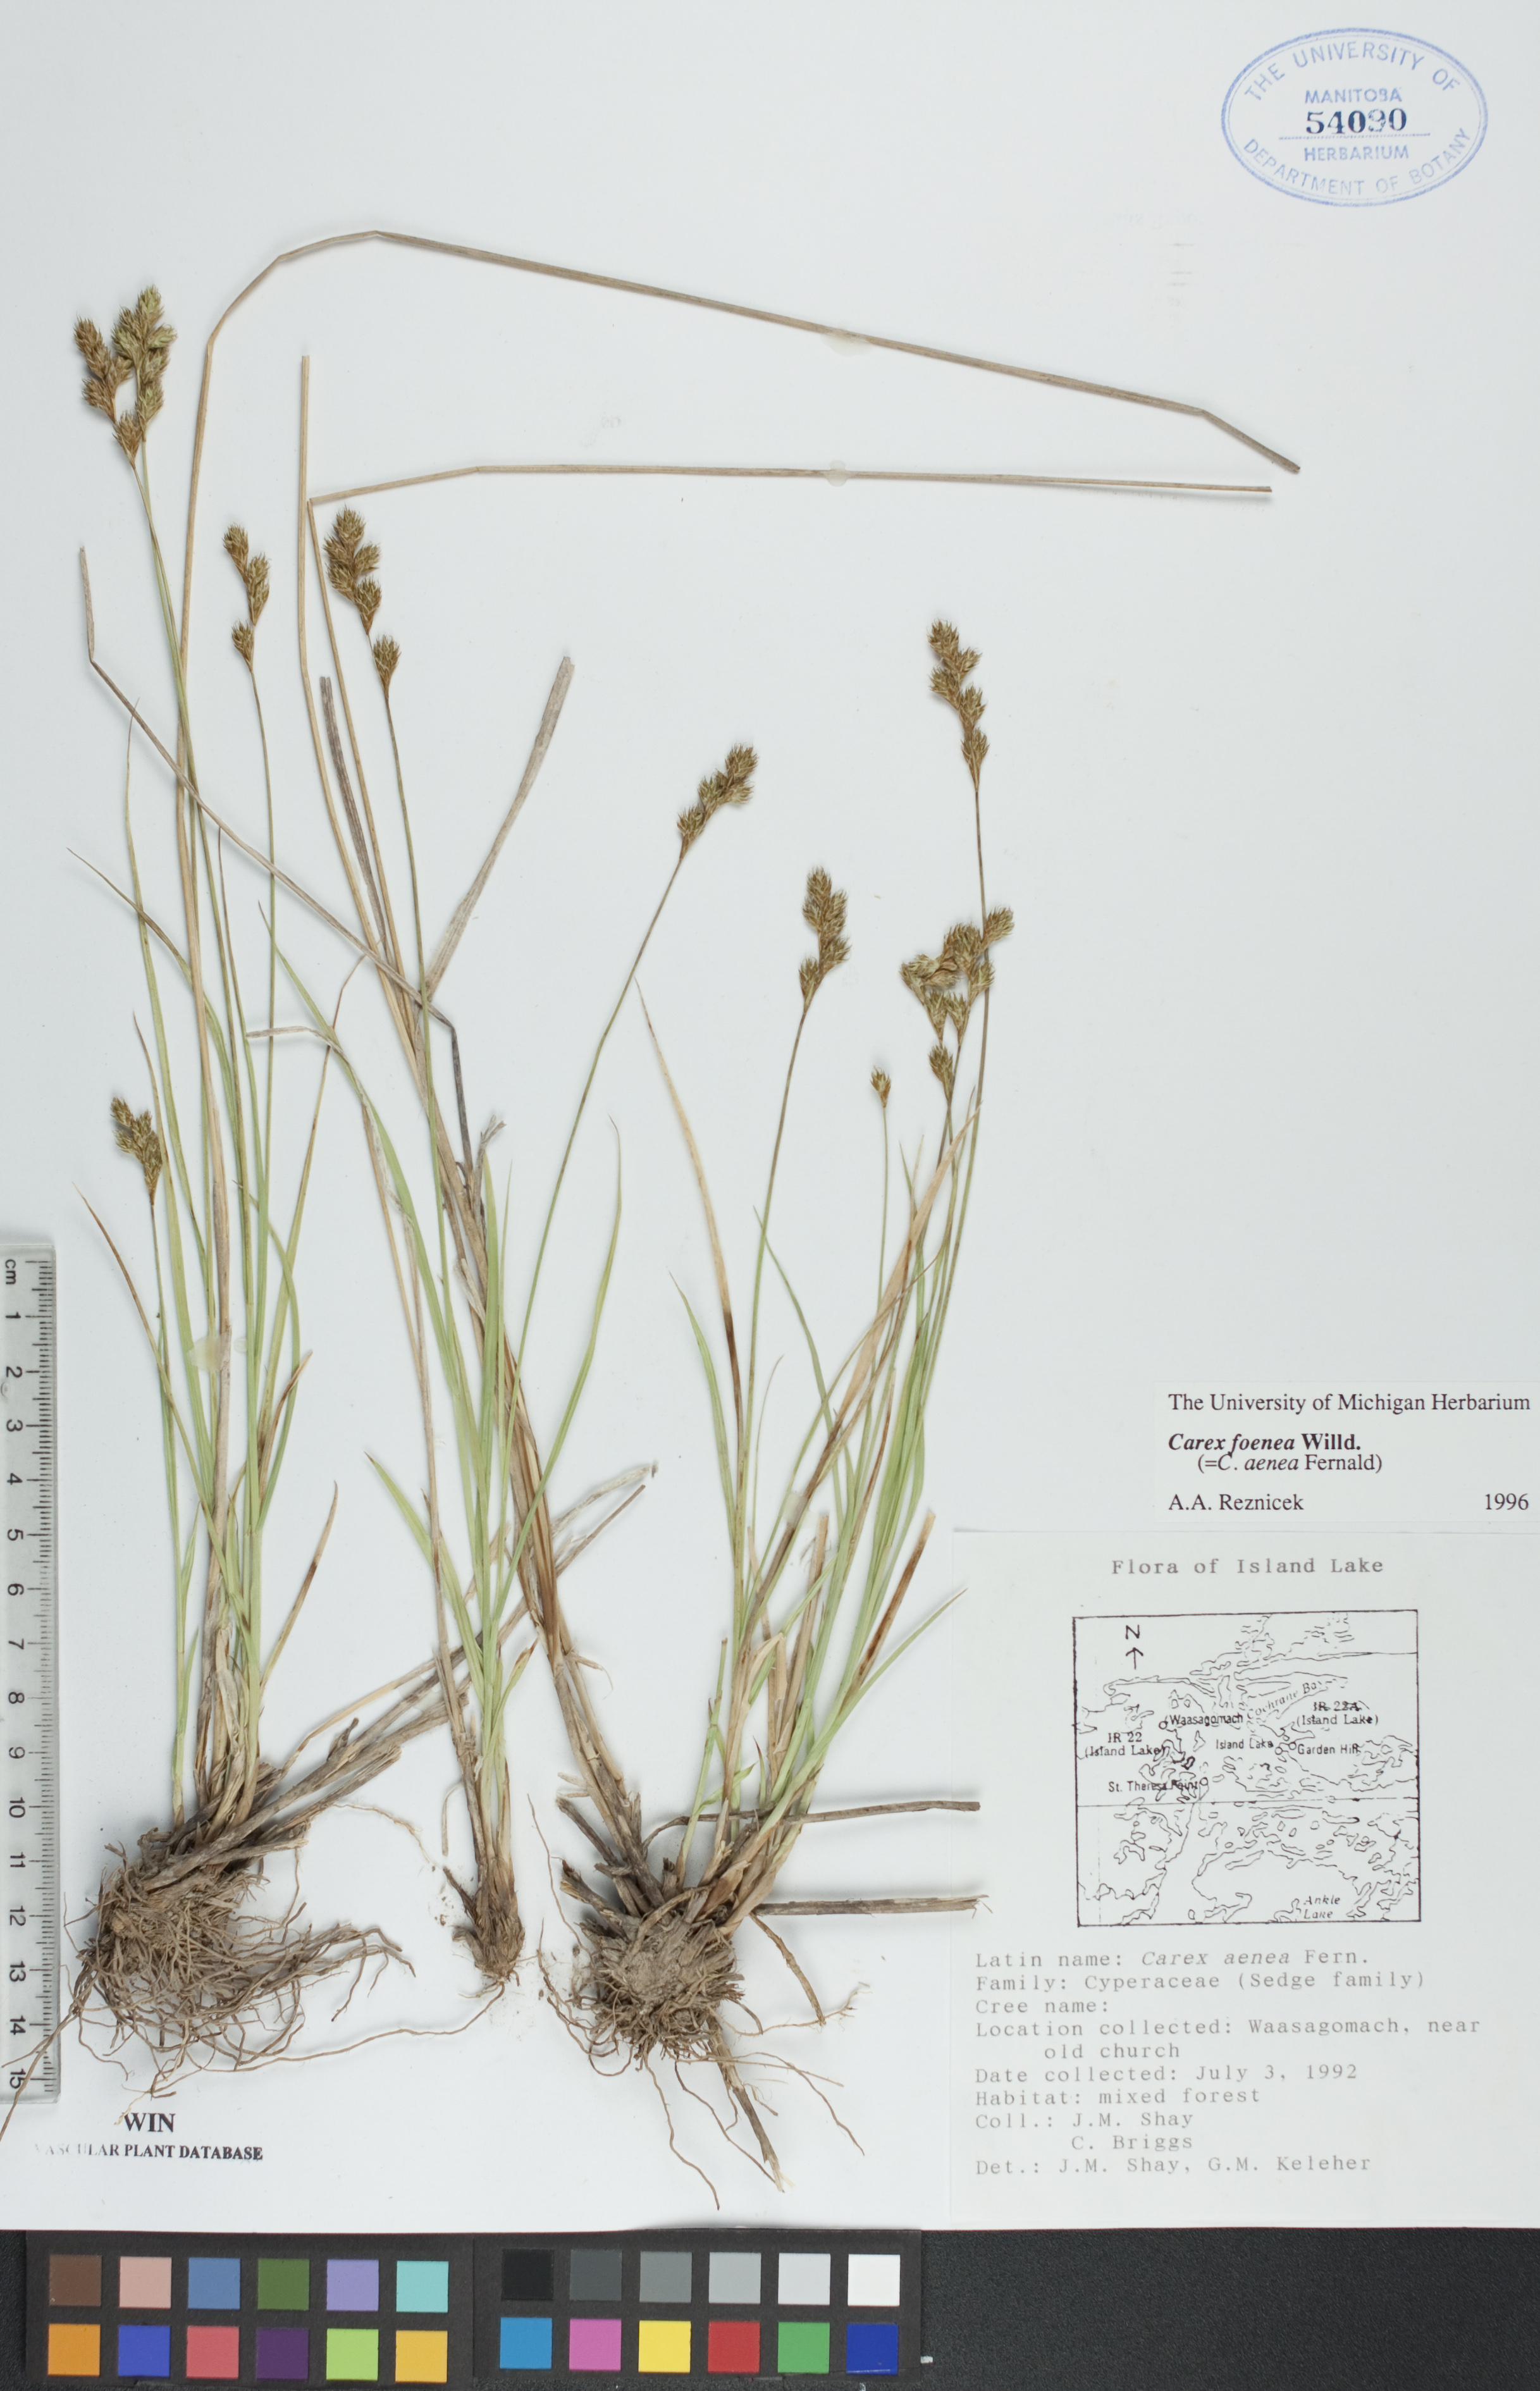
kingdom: Plantae
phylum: Tracheophyta
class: Liliopsida
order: Poales
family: Cyperaceae
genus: Carex
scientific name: Carex foenea
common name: Bronze sedge
